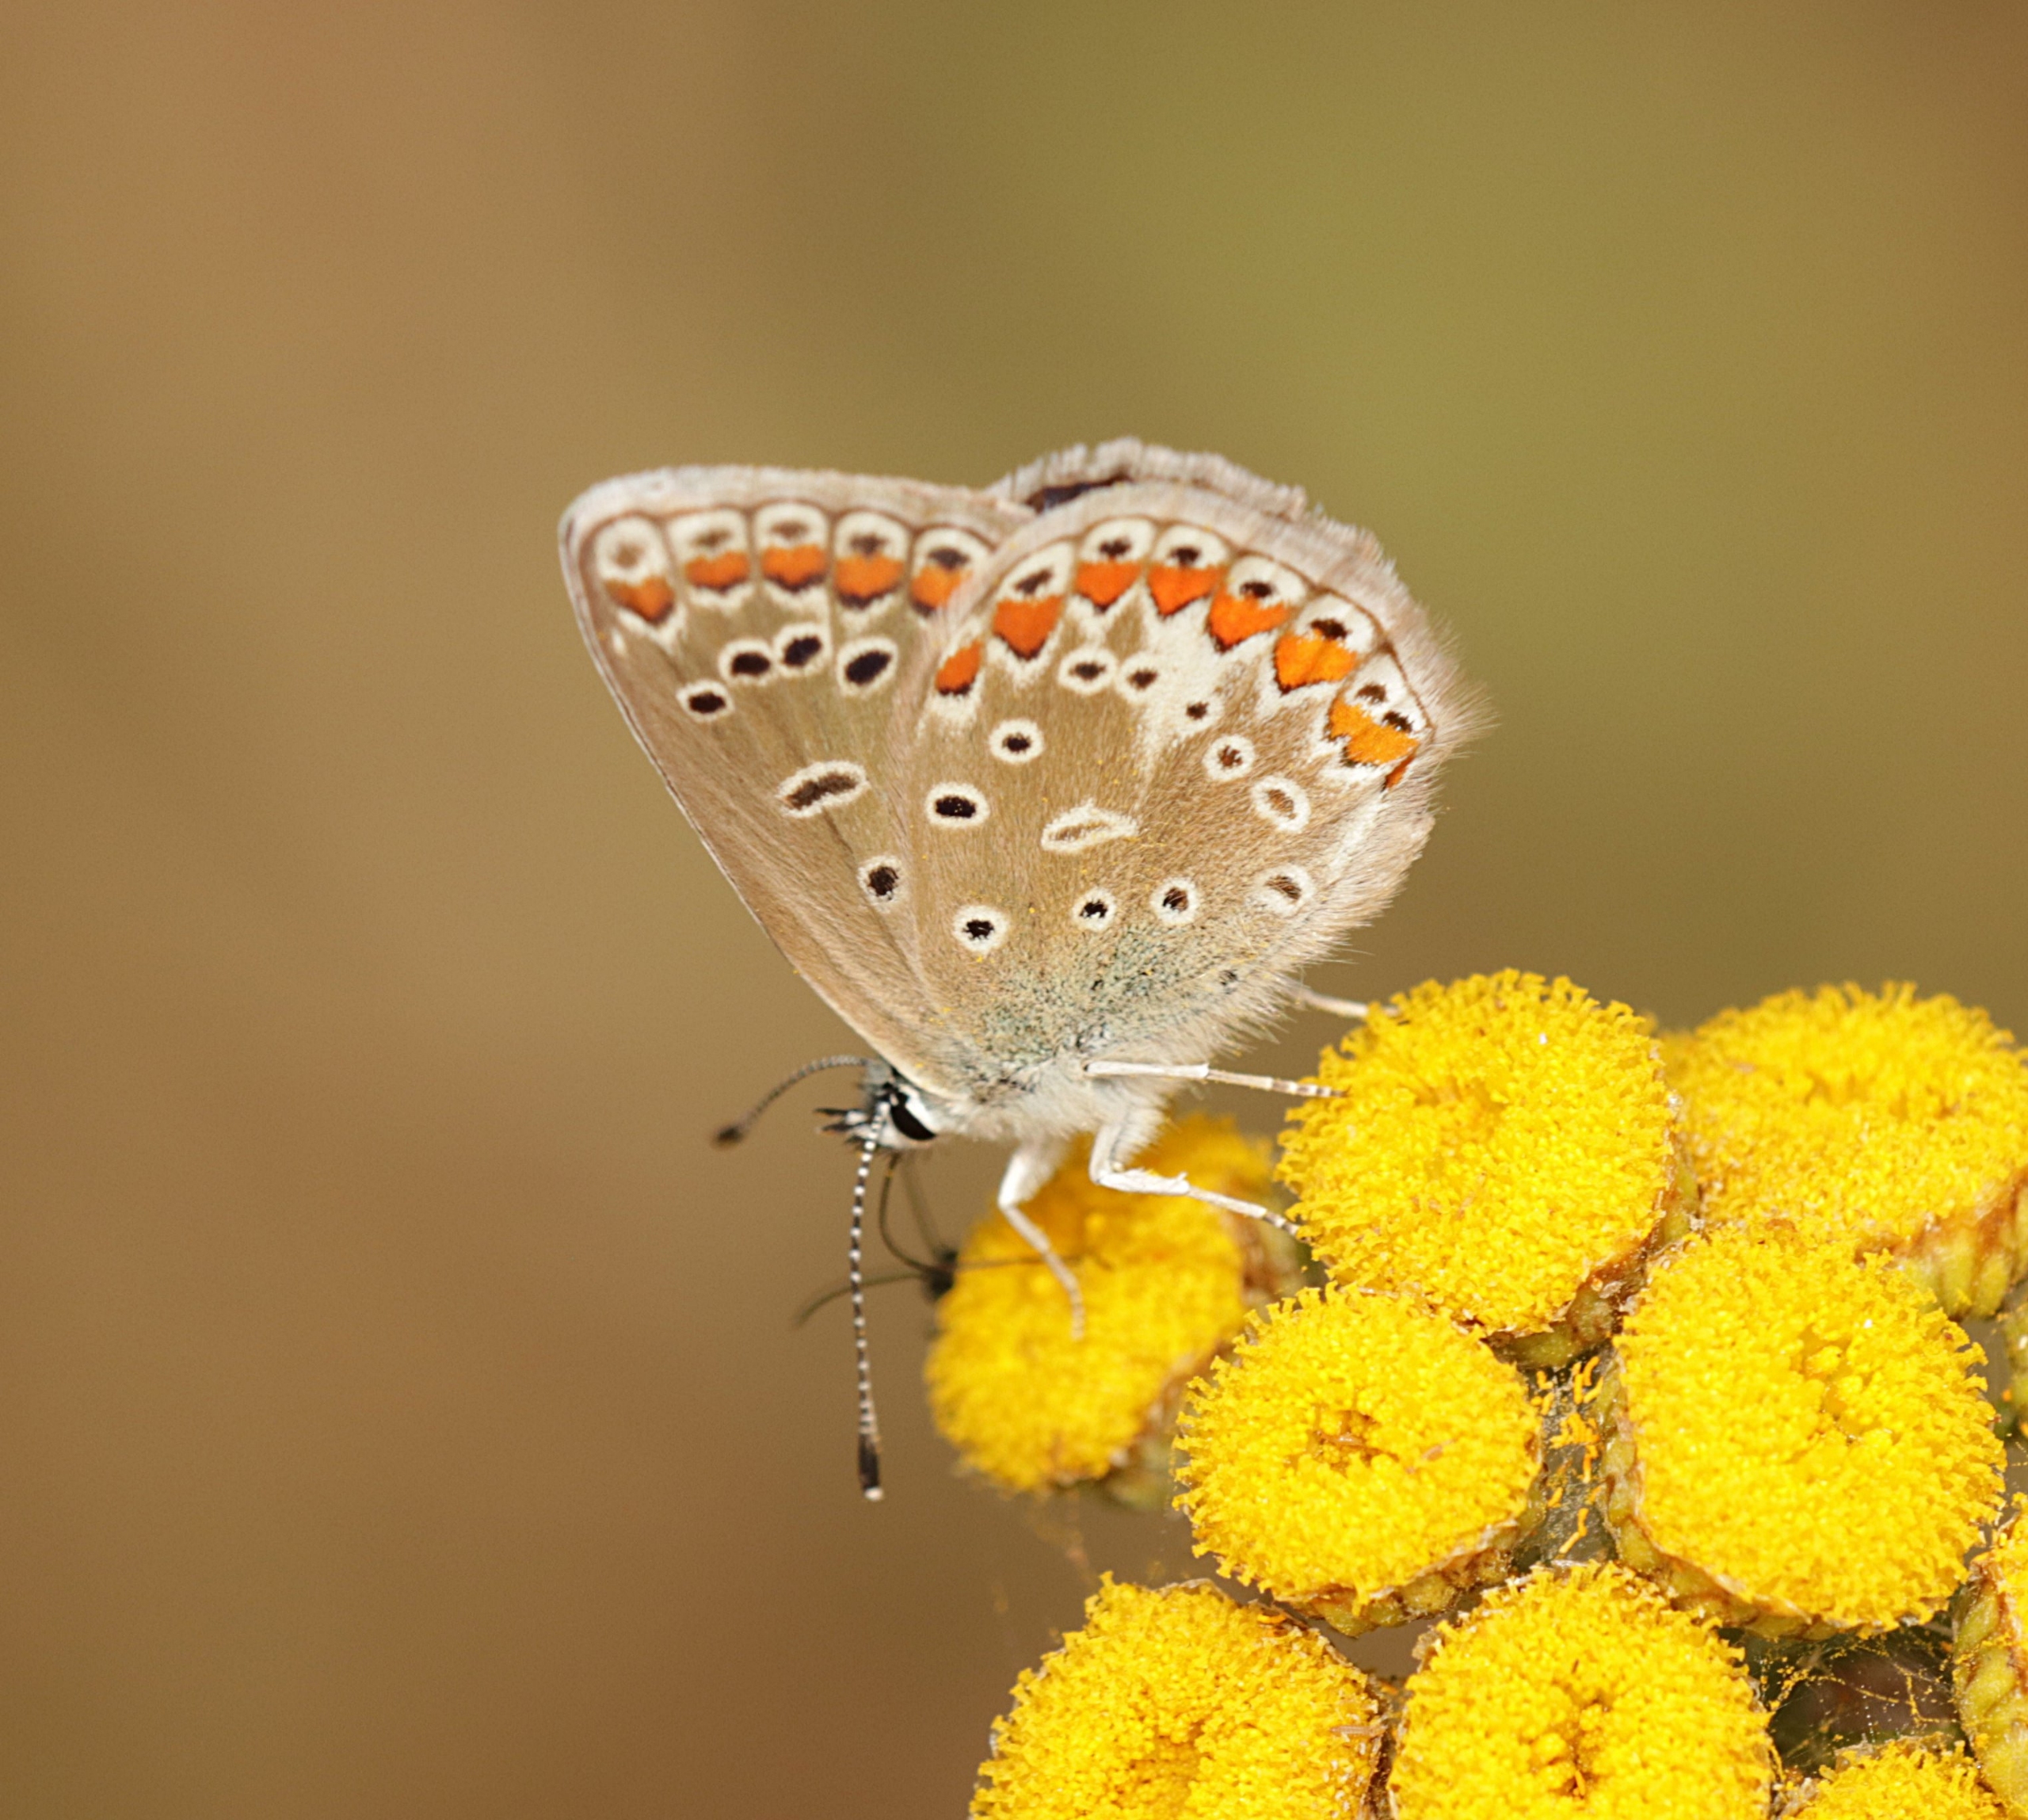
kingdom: Animalia
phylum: Arthropoda
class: Insecta
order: Lepidoptera
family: Lycaenidae
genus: Polyommatus
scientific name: Polyommatus icarus
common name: Almindelig blåfugl
